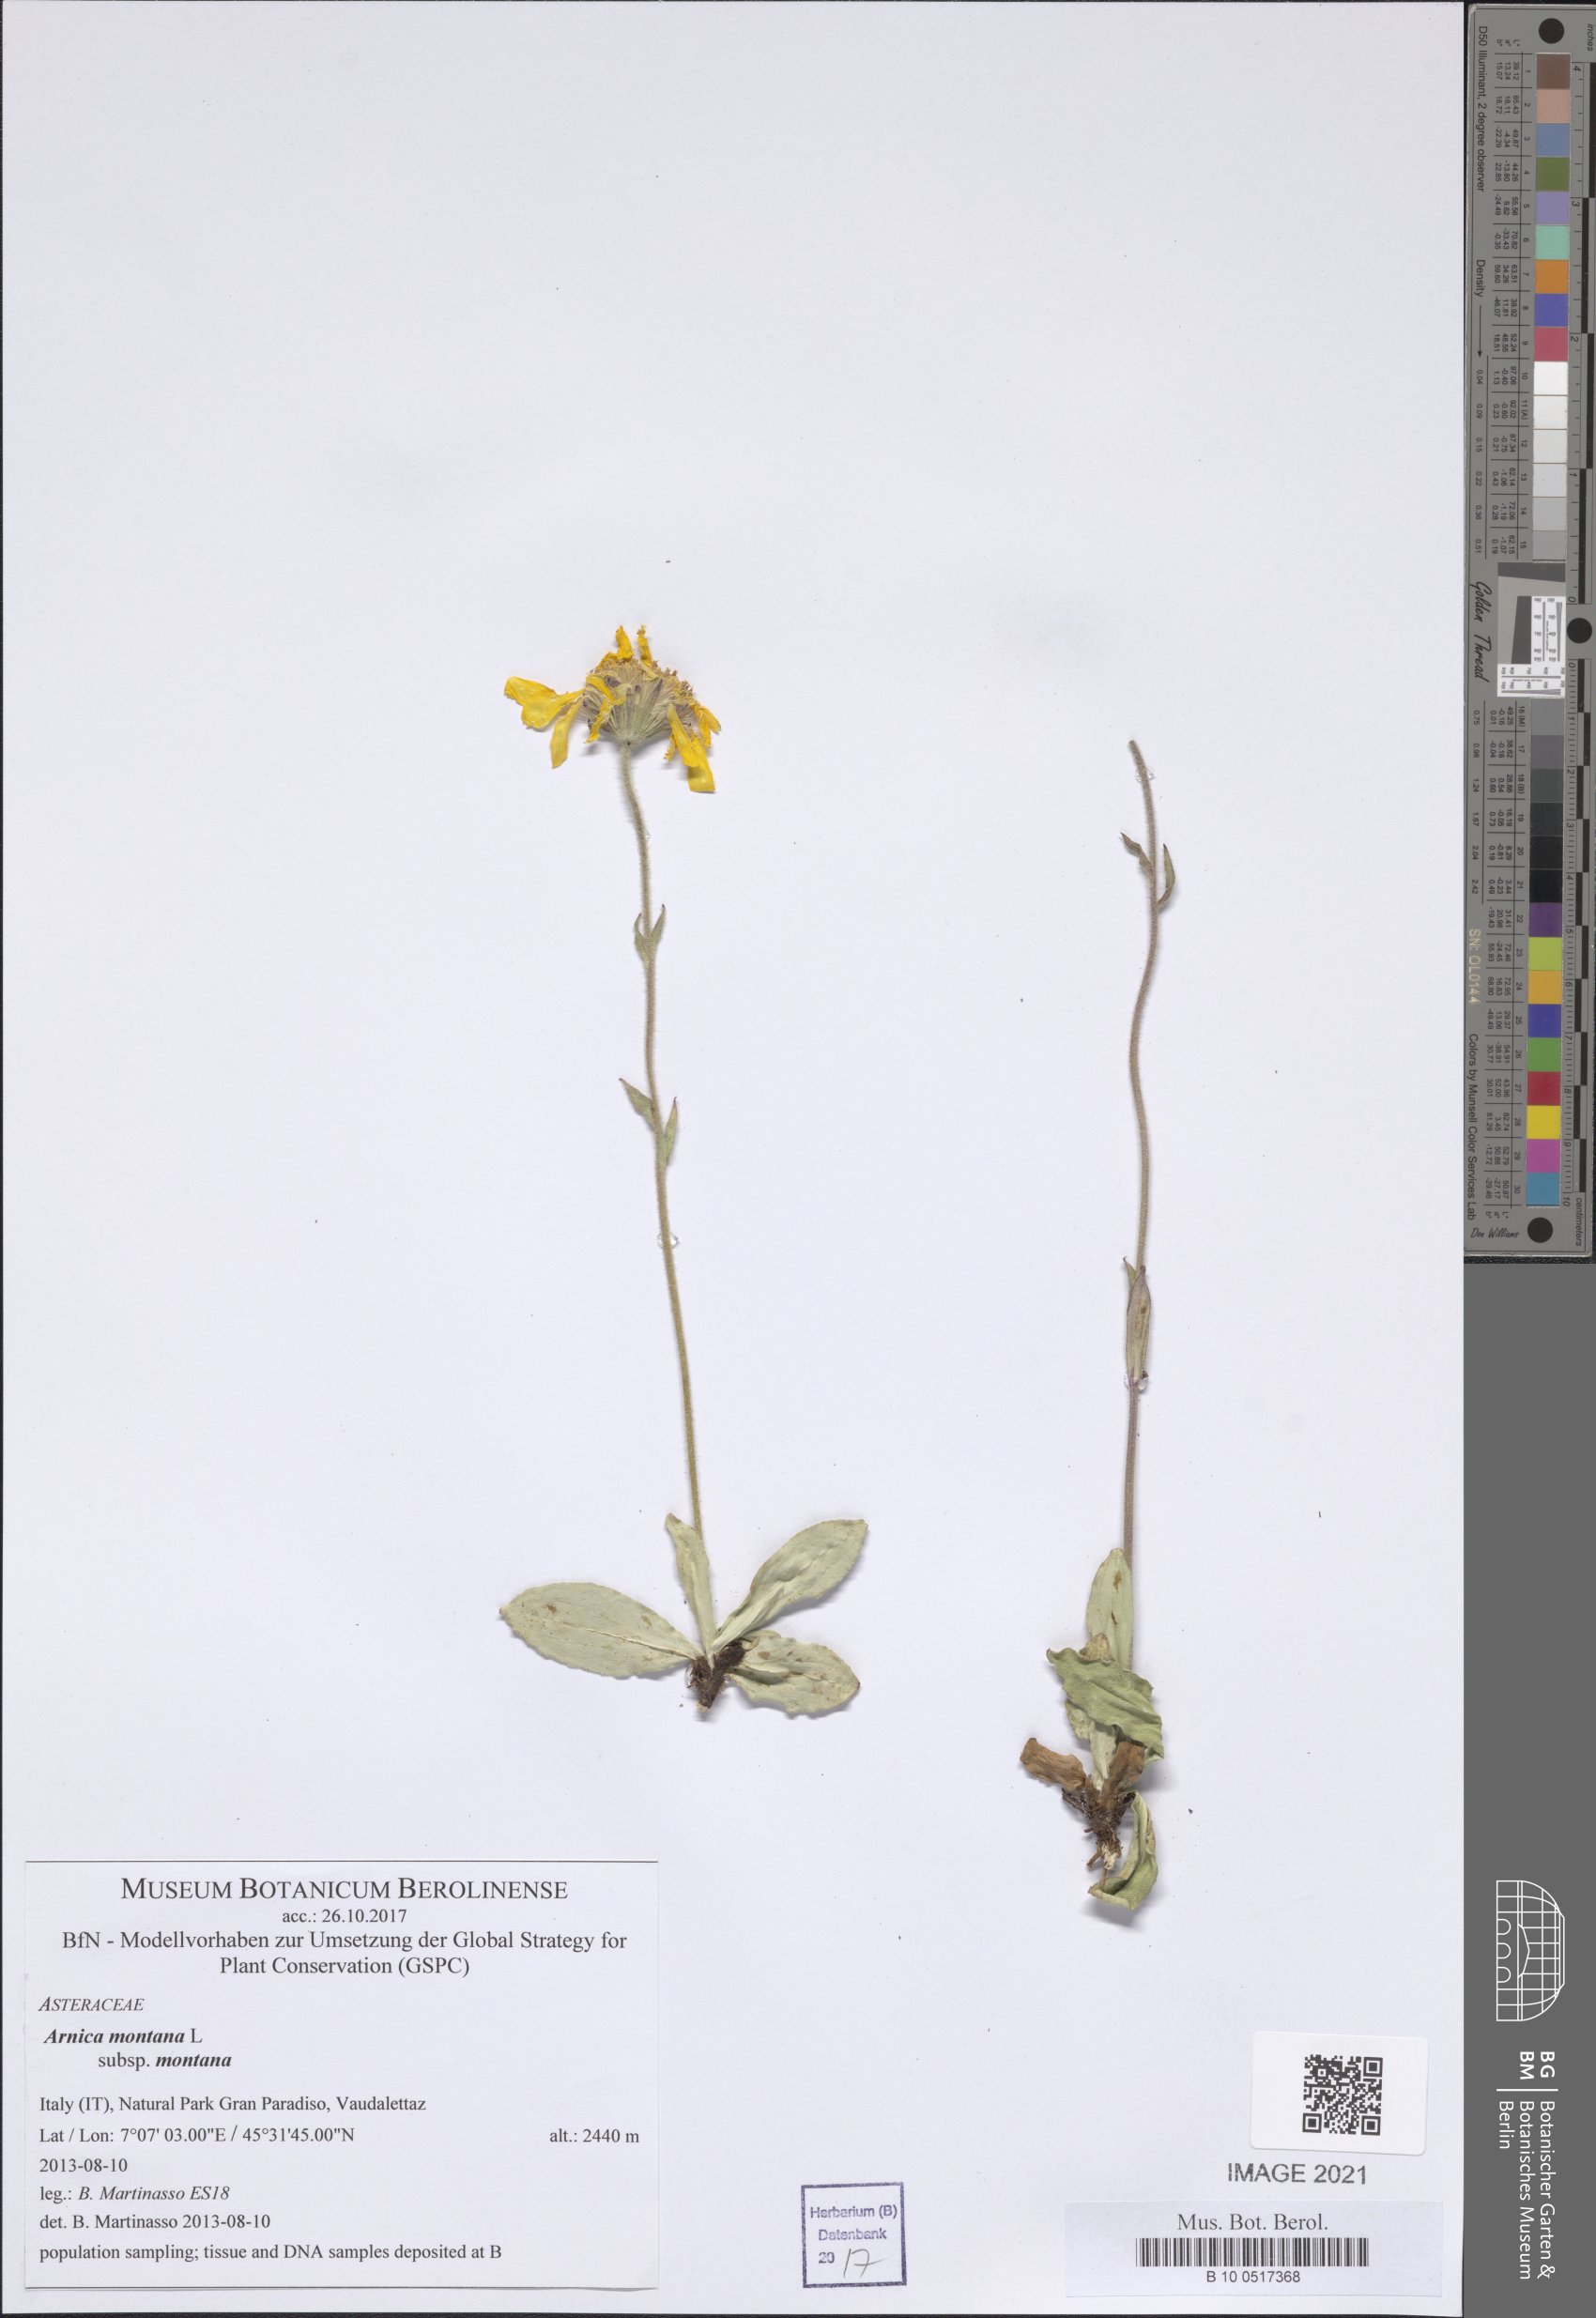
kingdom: Plantae
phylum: Tracheophyta
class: Magnoliopsida
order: Asterales
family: Asteraceae
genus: Arnica
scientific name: Arnica montana
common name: Leopard's bane
